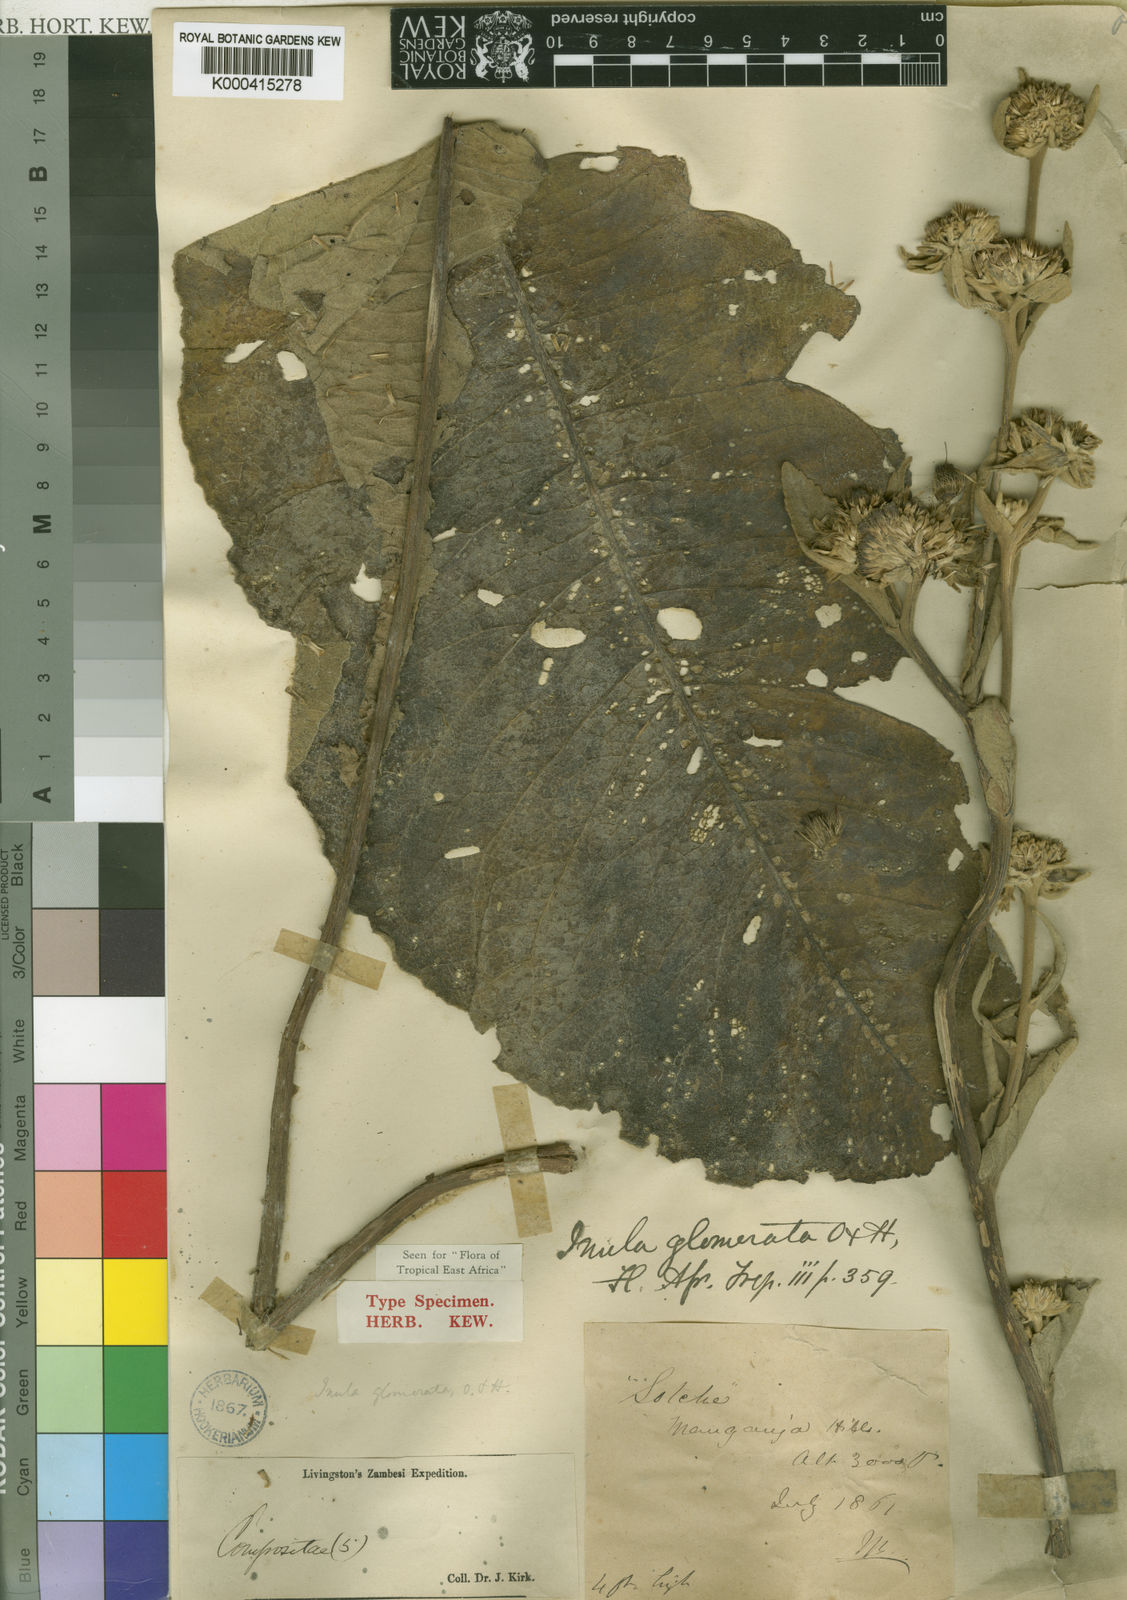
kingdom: Plantae
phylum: Tracheophyta
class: Magnoliopsida
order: Asterales
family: Asteraceae
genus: Inula
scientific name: Inula glomerata
